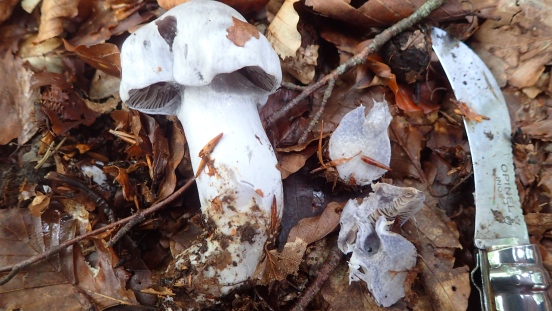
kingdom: Fungi
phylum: Basidiomycota
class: Agaricomycetes
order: Agaricales
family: Cortinariaceae
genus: Cortinarius
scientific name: Cortinarius alboviolaceus
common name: lysviolet slørhat
